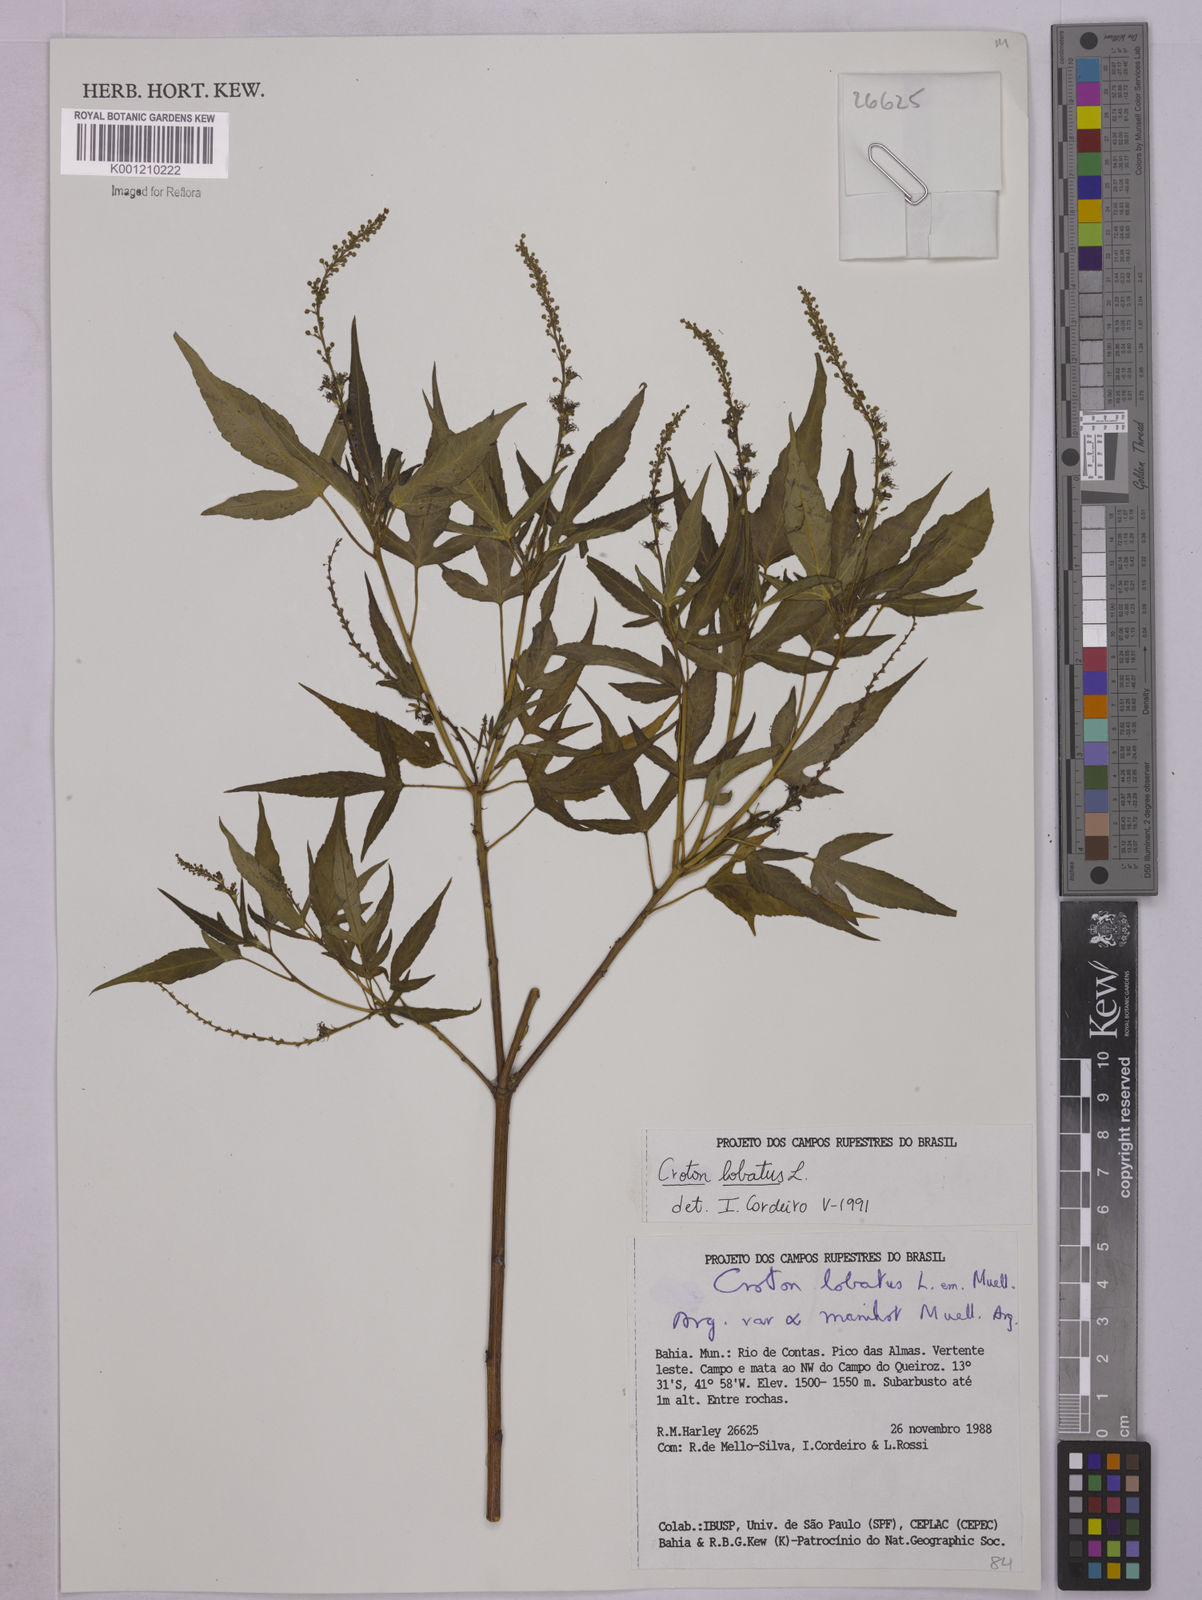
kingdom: Plantae
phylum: Tracheophyta
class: Magnoliopsida
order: Malpighiales
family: Euphorbiaceae
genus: Astraea
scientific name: Astraea lobata
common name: Lobed croton
